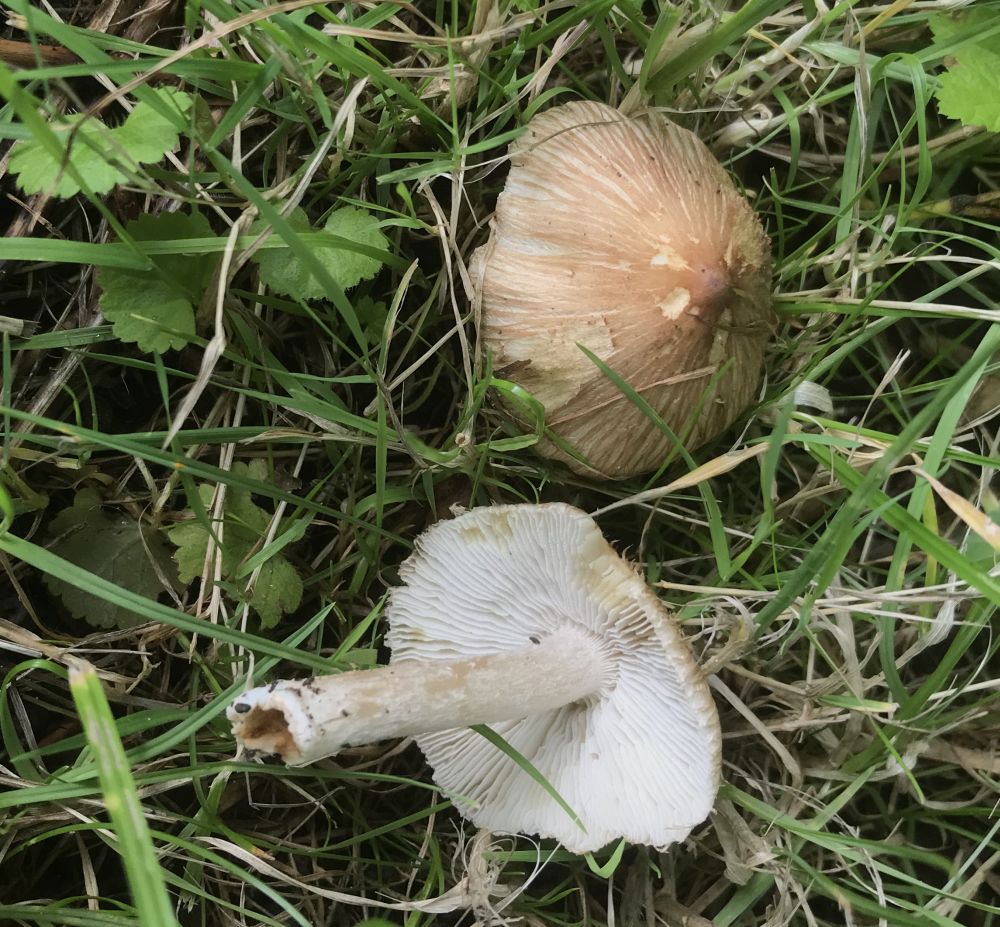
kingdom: Fungi
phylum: Basidiomycota
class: Agaricomycetes
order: Agaricales
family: Inocybaceae
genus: Inocybe
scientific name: Inocybe
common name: trævlhat
